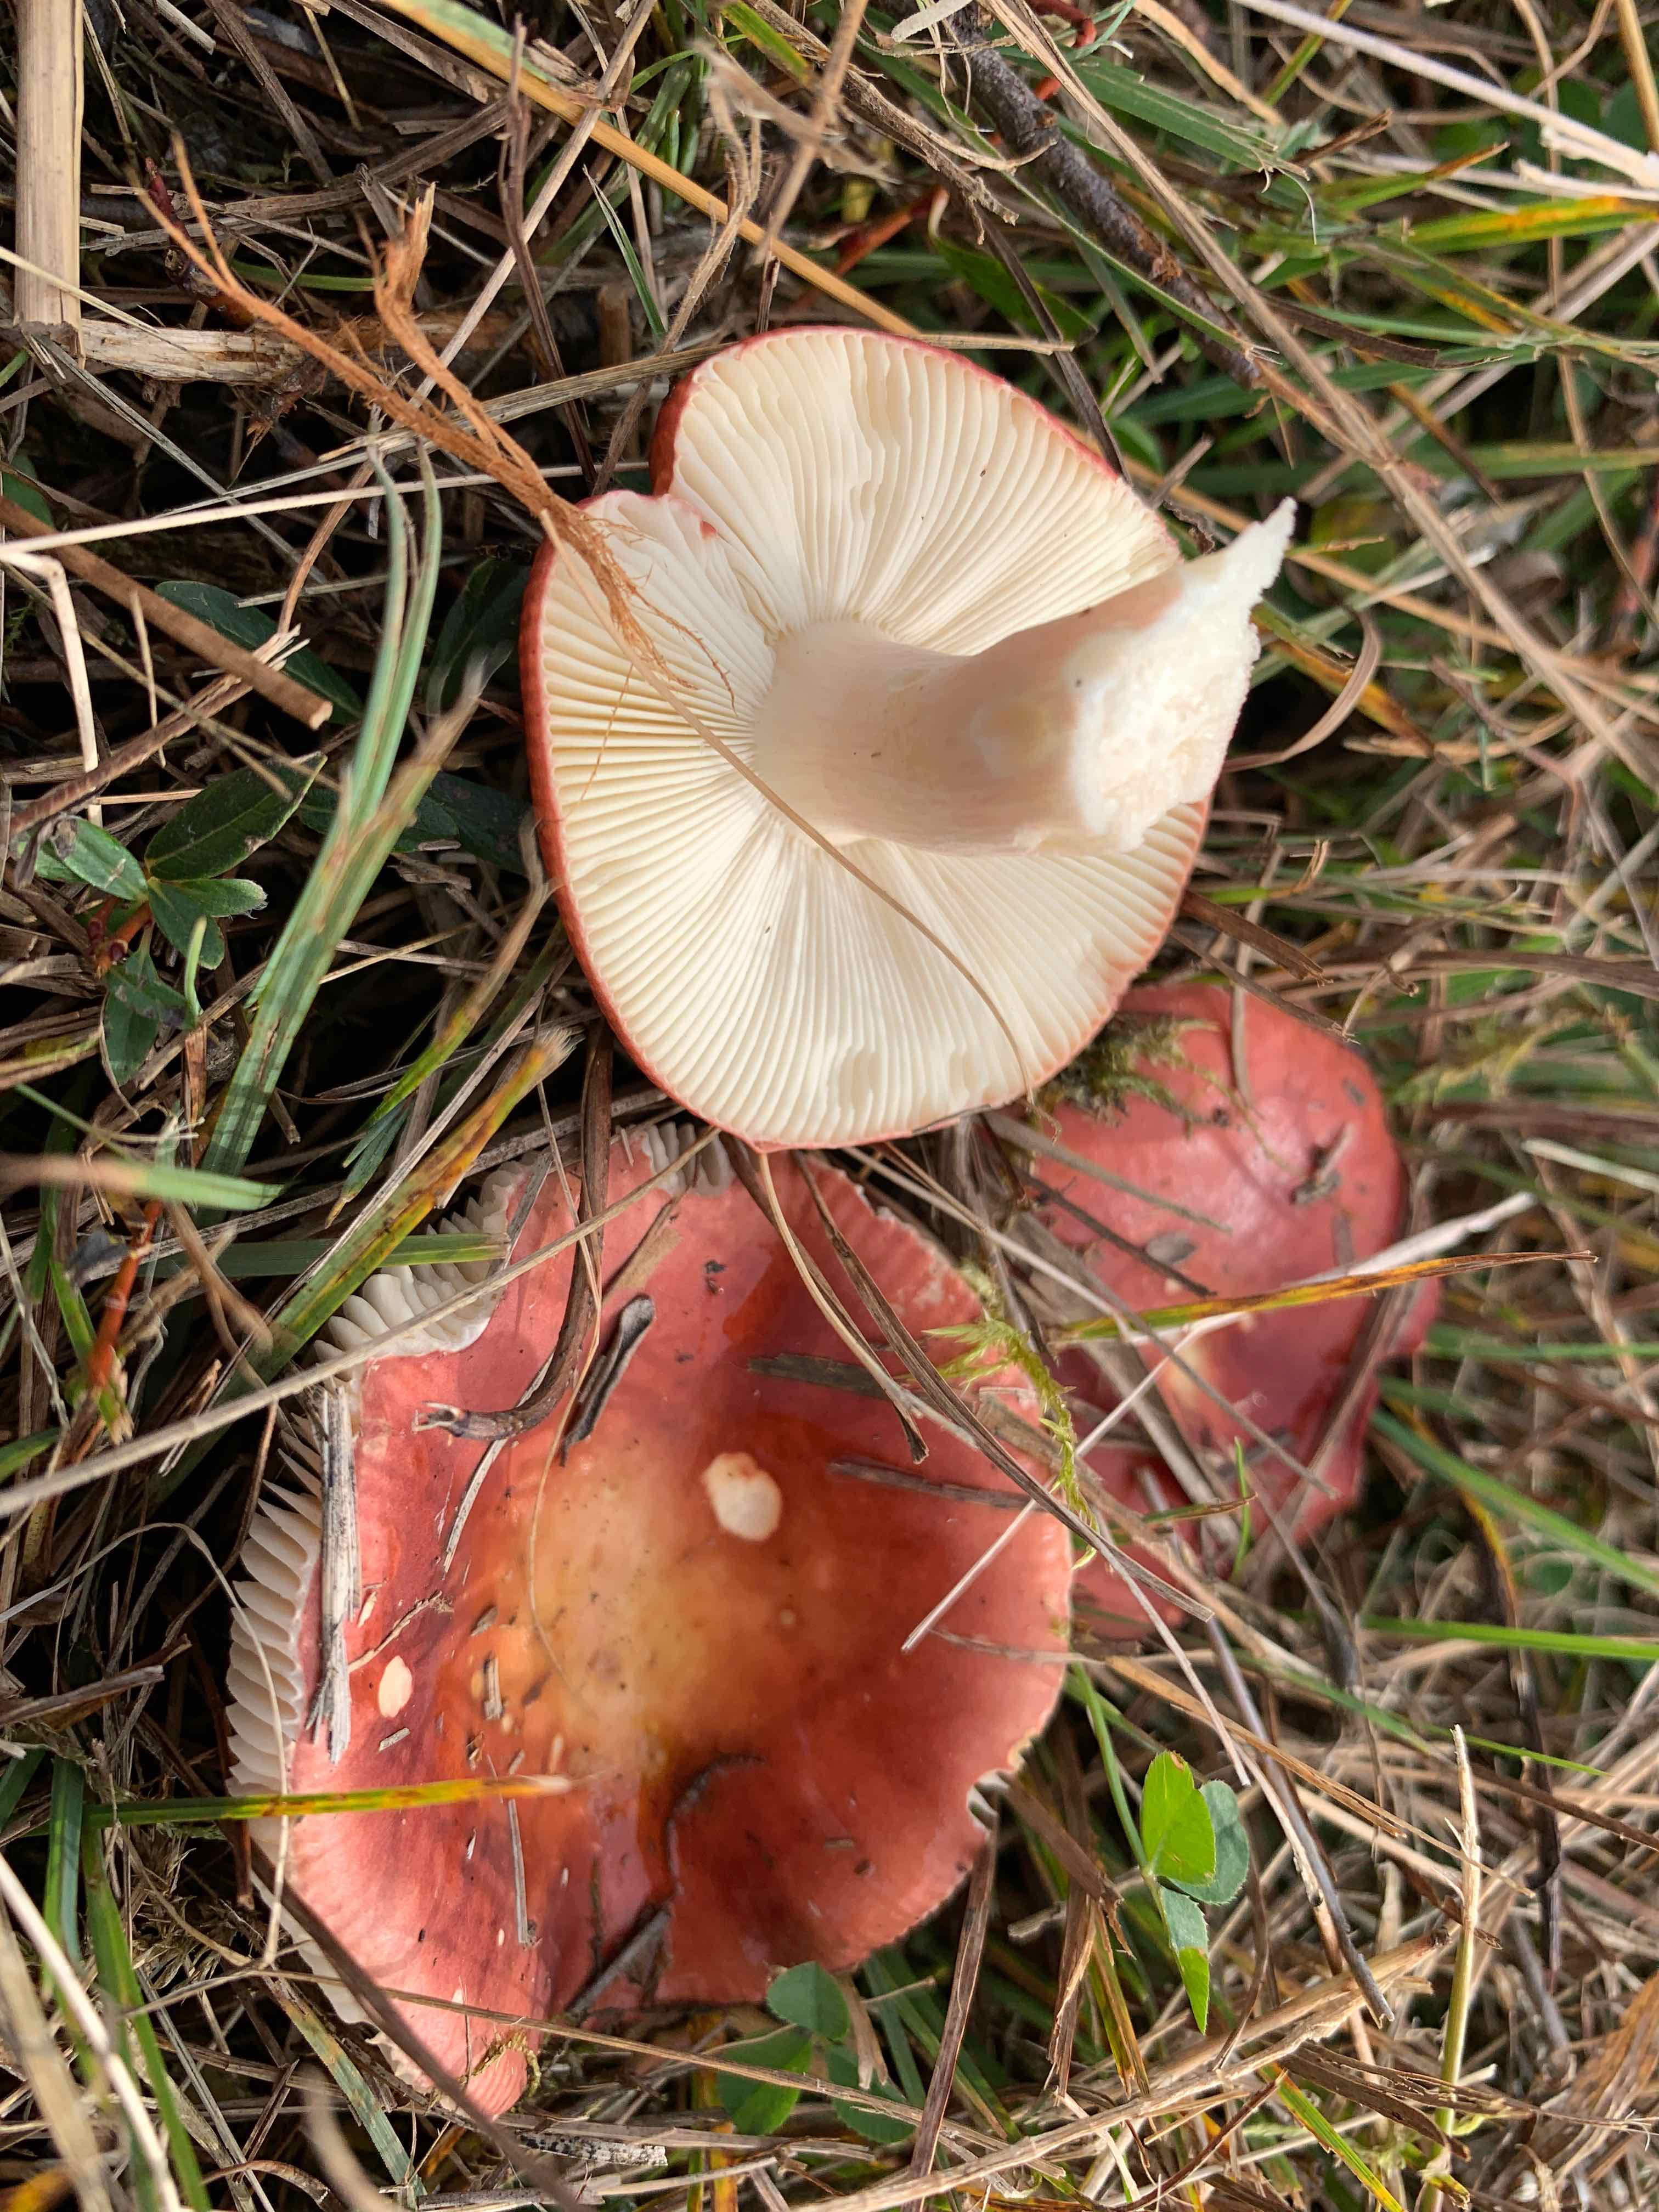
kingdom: Fungi
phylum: Basidiomycota
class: Agaricomycetes
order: Russulales
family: Russulaceae
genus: Russula
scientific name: Russula subrubens
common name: pile-skørhat
